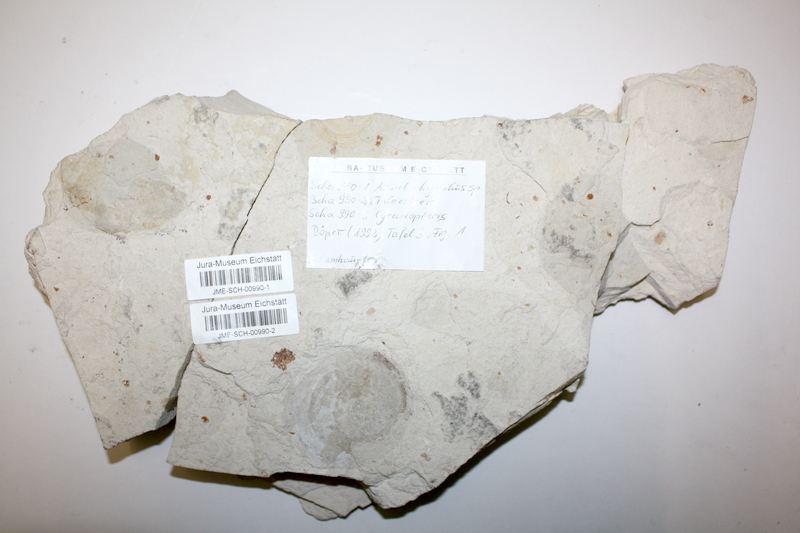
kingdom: Animalia
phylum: Chordata
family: Aspidorhynchidae
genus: Aspidorhynchus
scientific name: Aspidorhynchus acutirostris
